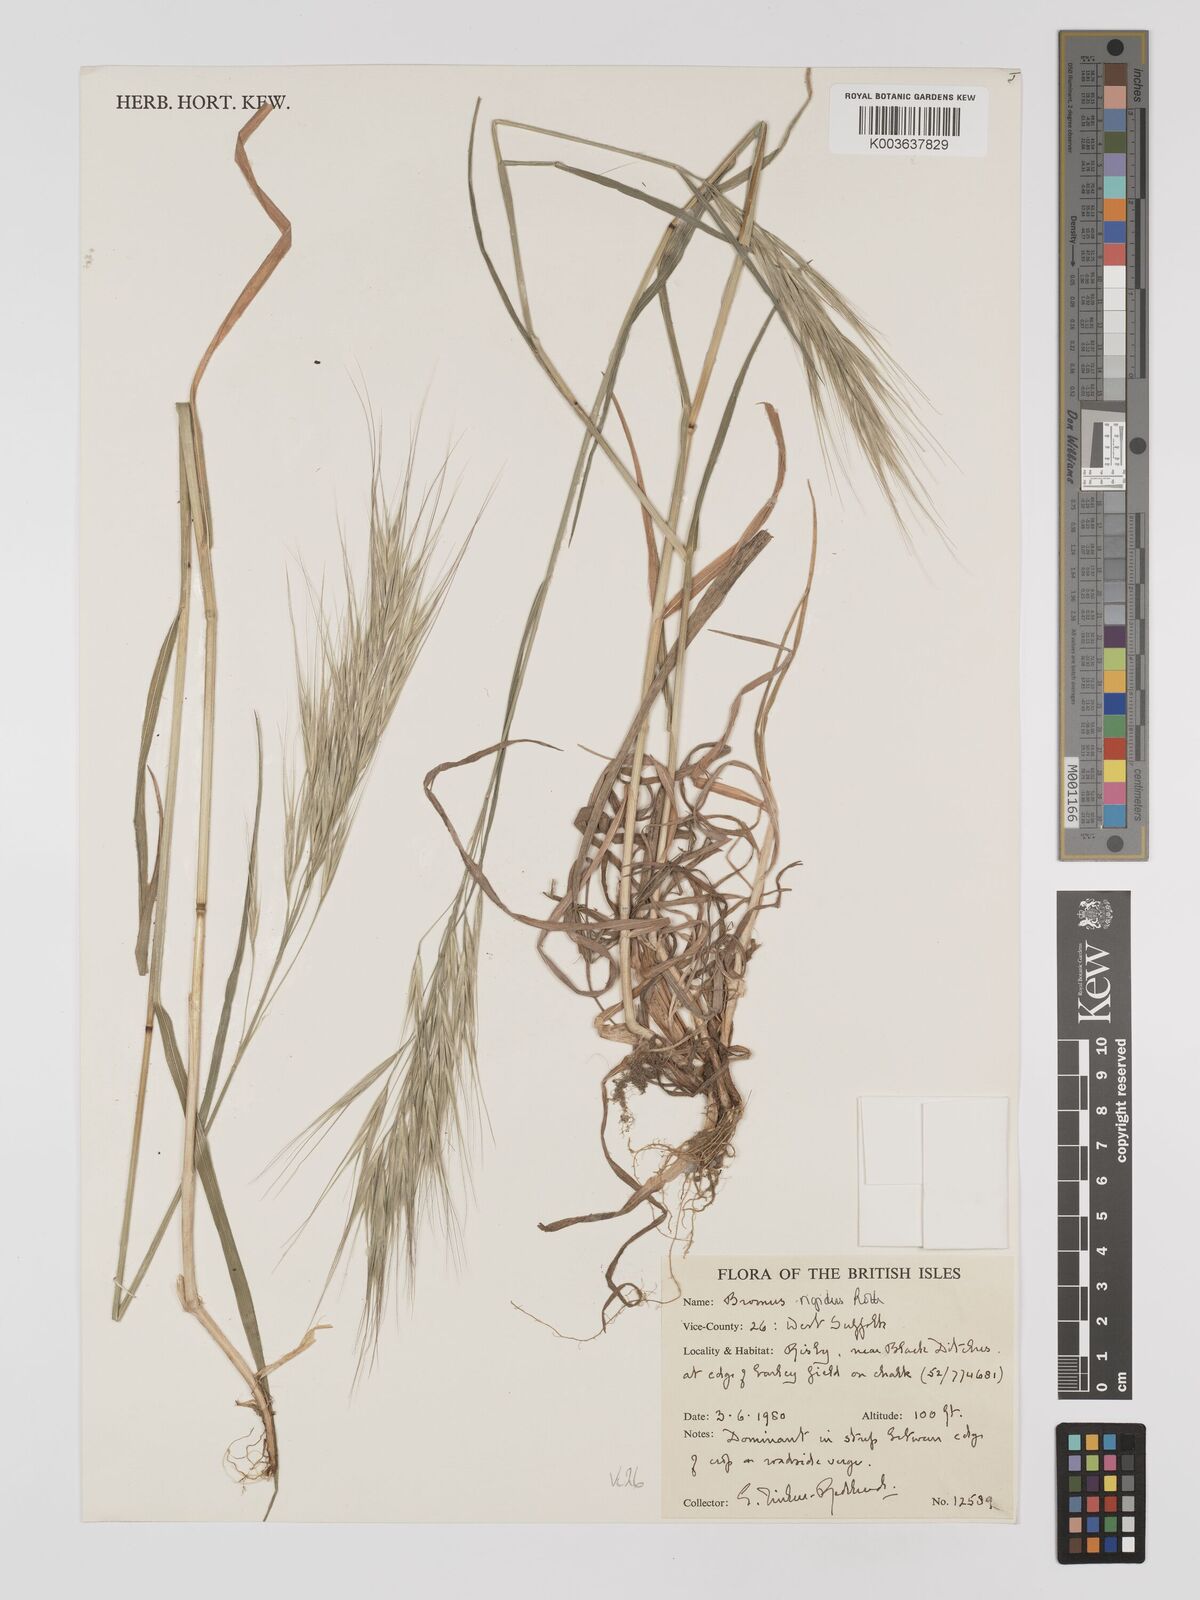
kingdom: Plantae
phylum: Tracheophyta
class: Liliopsida
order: Poales
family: Poaceae
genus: Bromus
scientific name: Bromus
